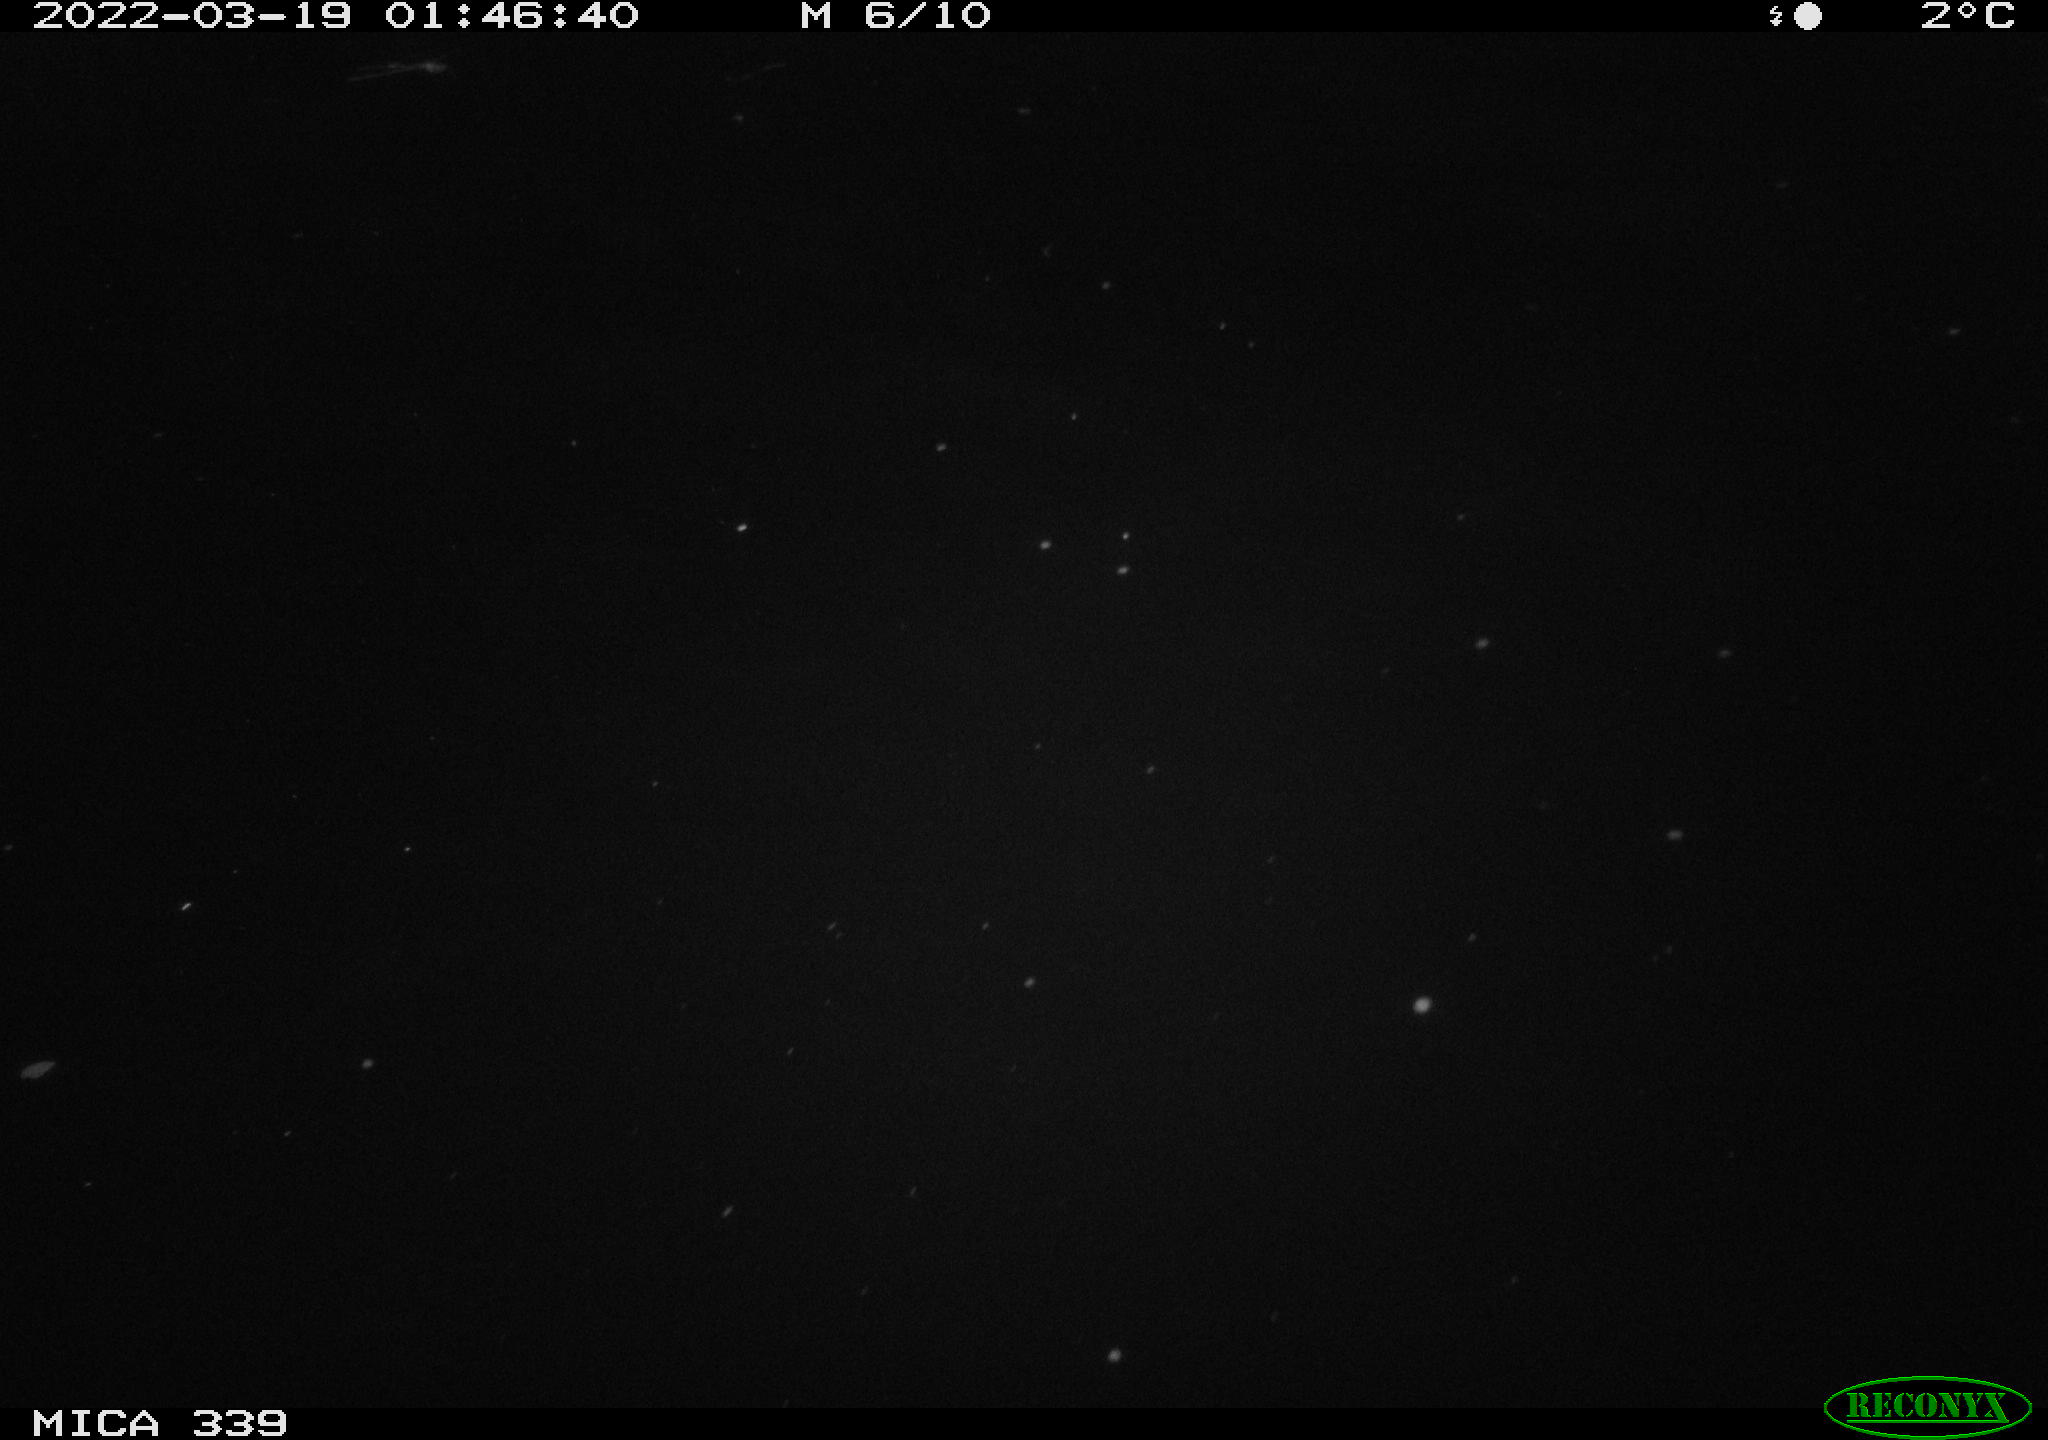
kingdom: Animalia
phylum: Chordata
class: Aves
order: Anseriformes
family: Anatidae
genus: Anas
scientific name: Anas platyrhynchos
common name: Mallard
